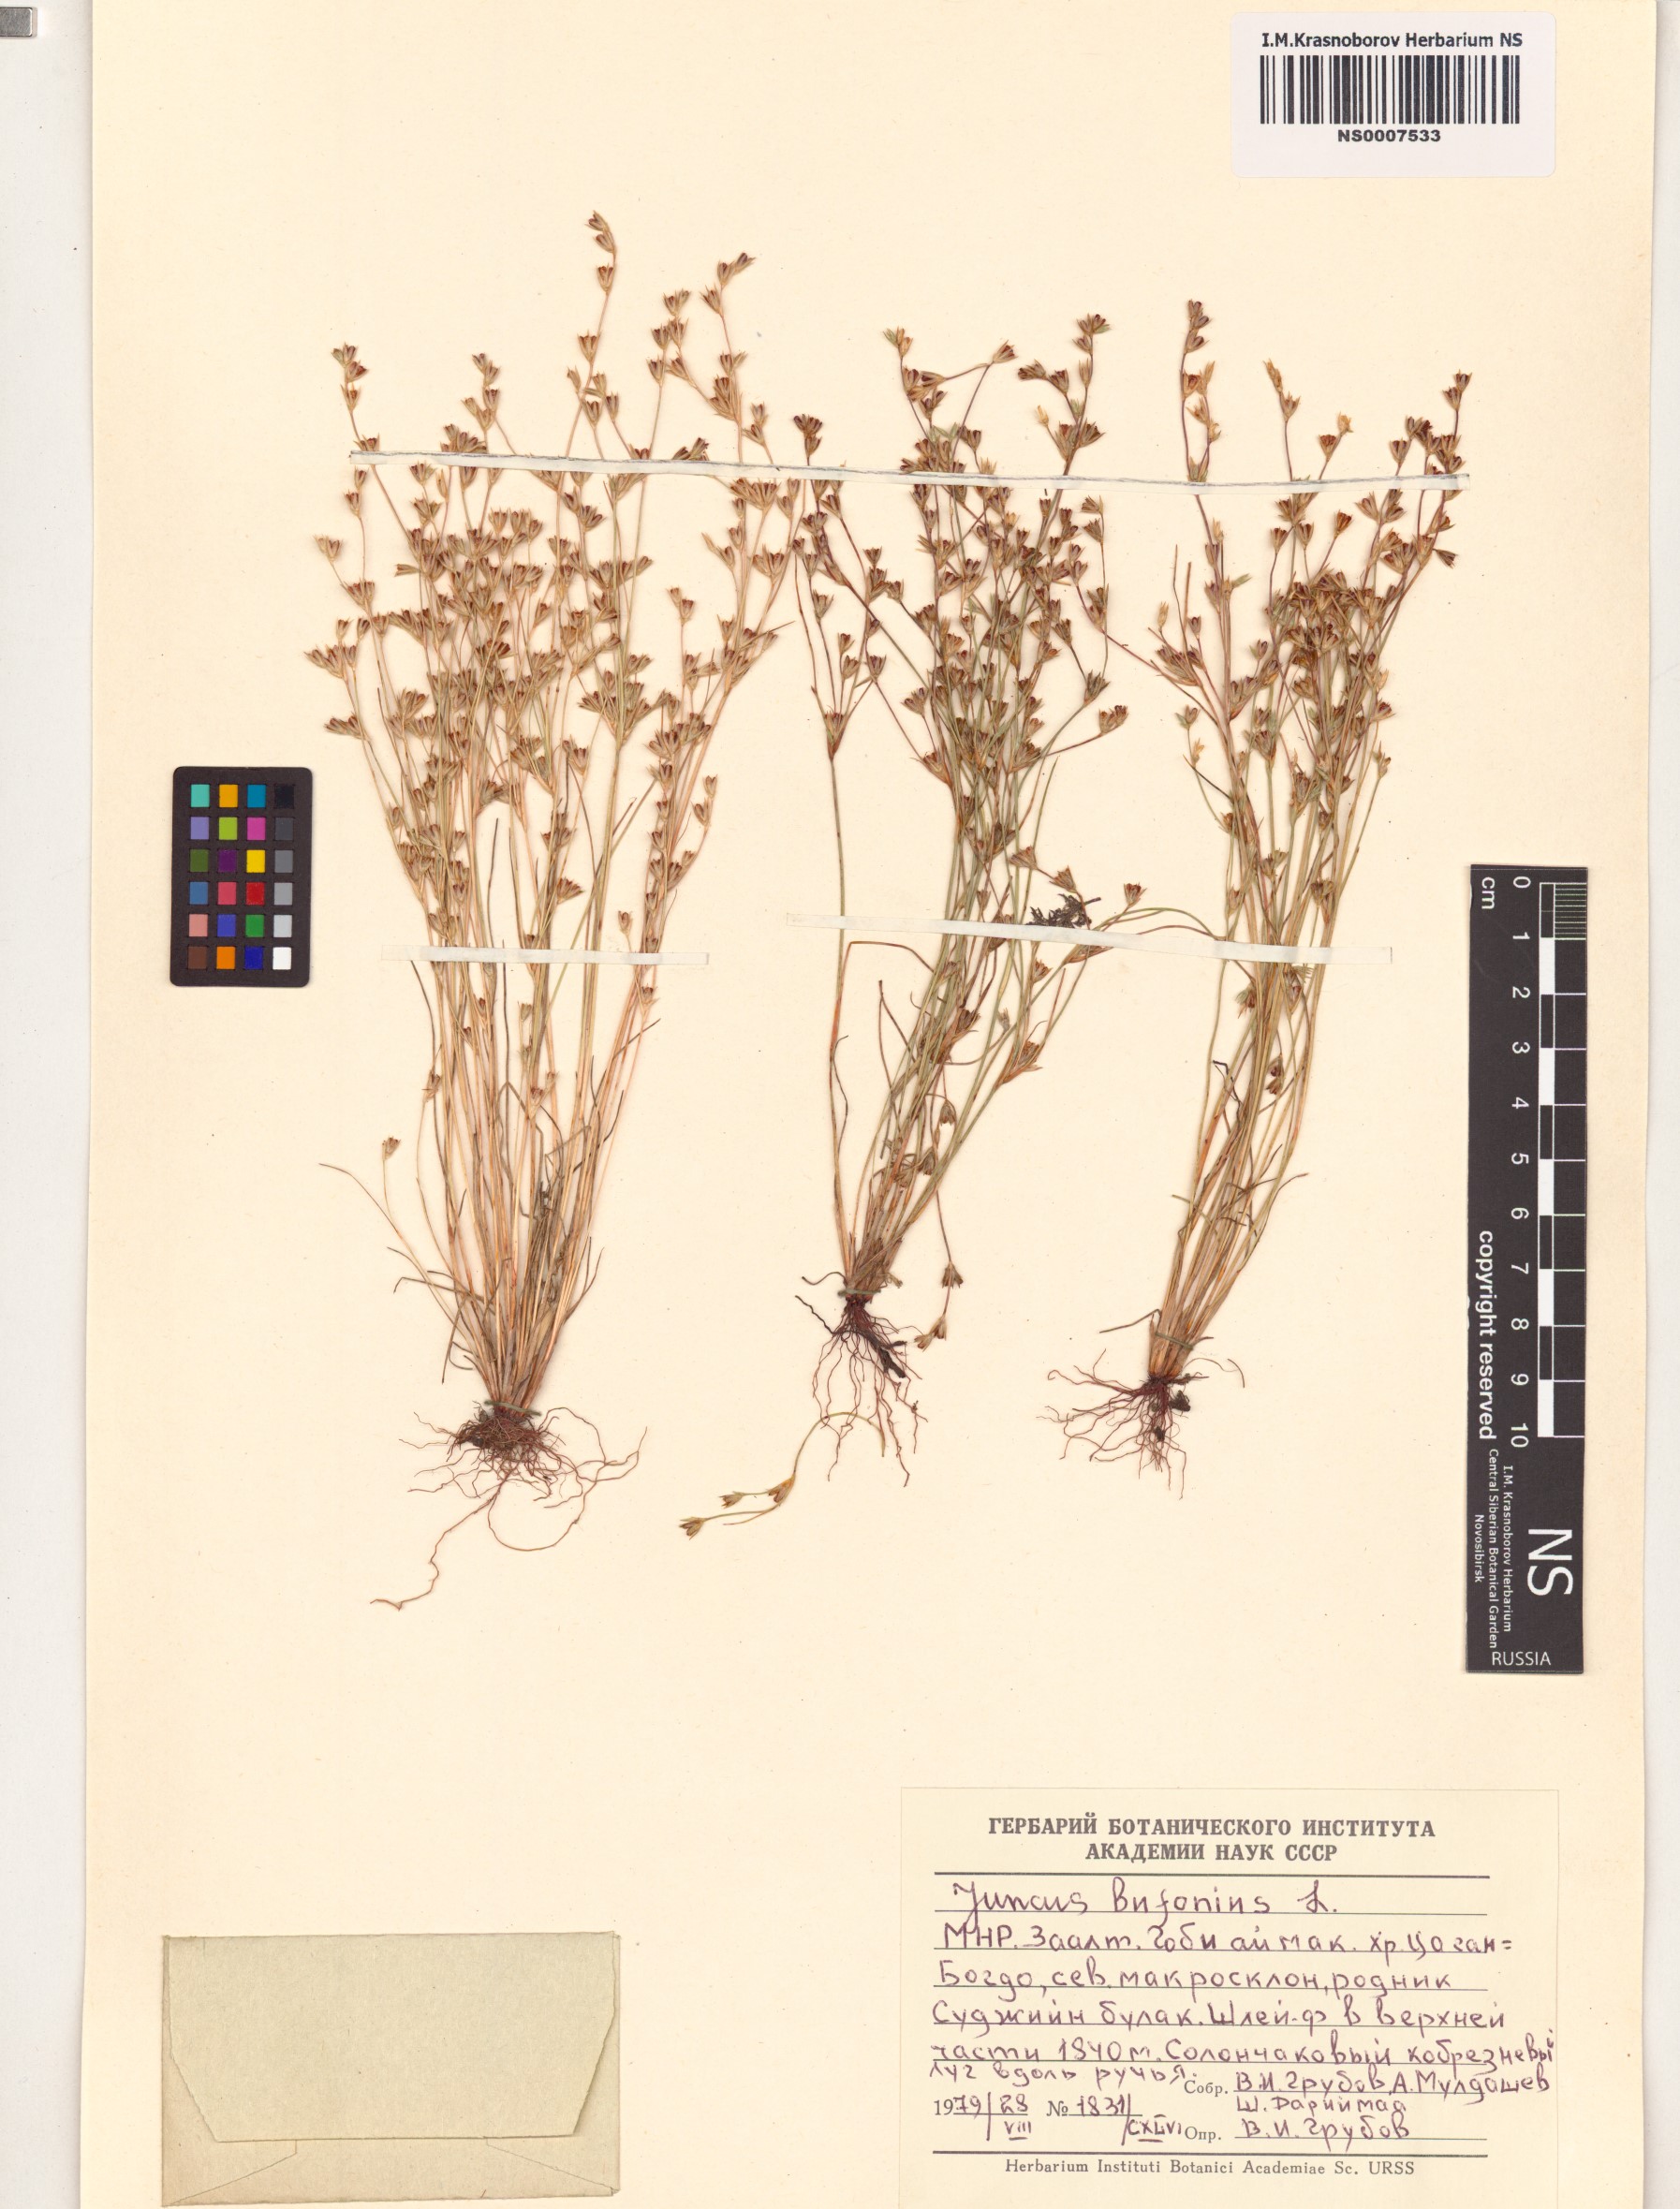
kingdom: Plantae
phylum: Tracheophyta
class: Liliopsida
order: Poales
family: Juncaceae
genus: Juncus
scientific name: Juncus bufonius
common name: Toad rush
